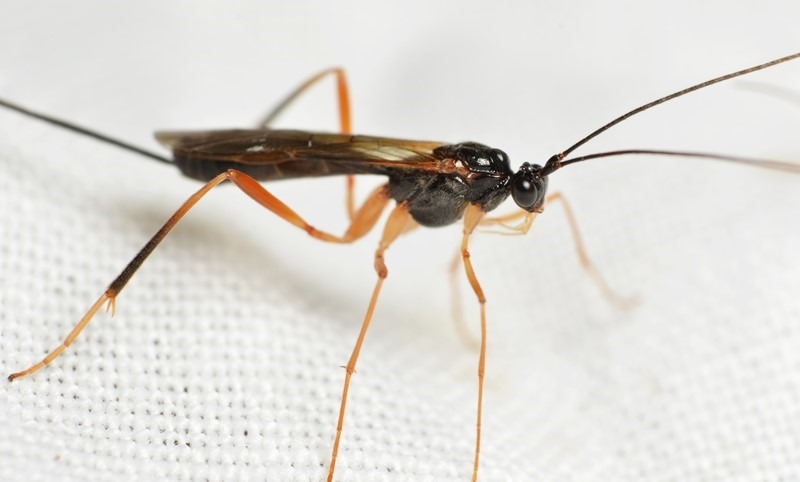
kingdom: Animalia
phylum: Arthropoda
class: Insecta
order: Hymenoptera
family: Braconidae
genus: Macrocentrus
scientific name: Macrocentrus gibber
